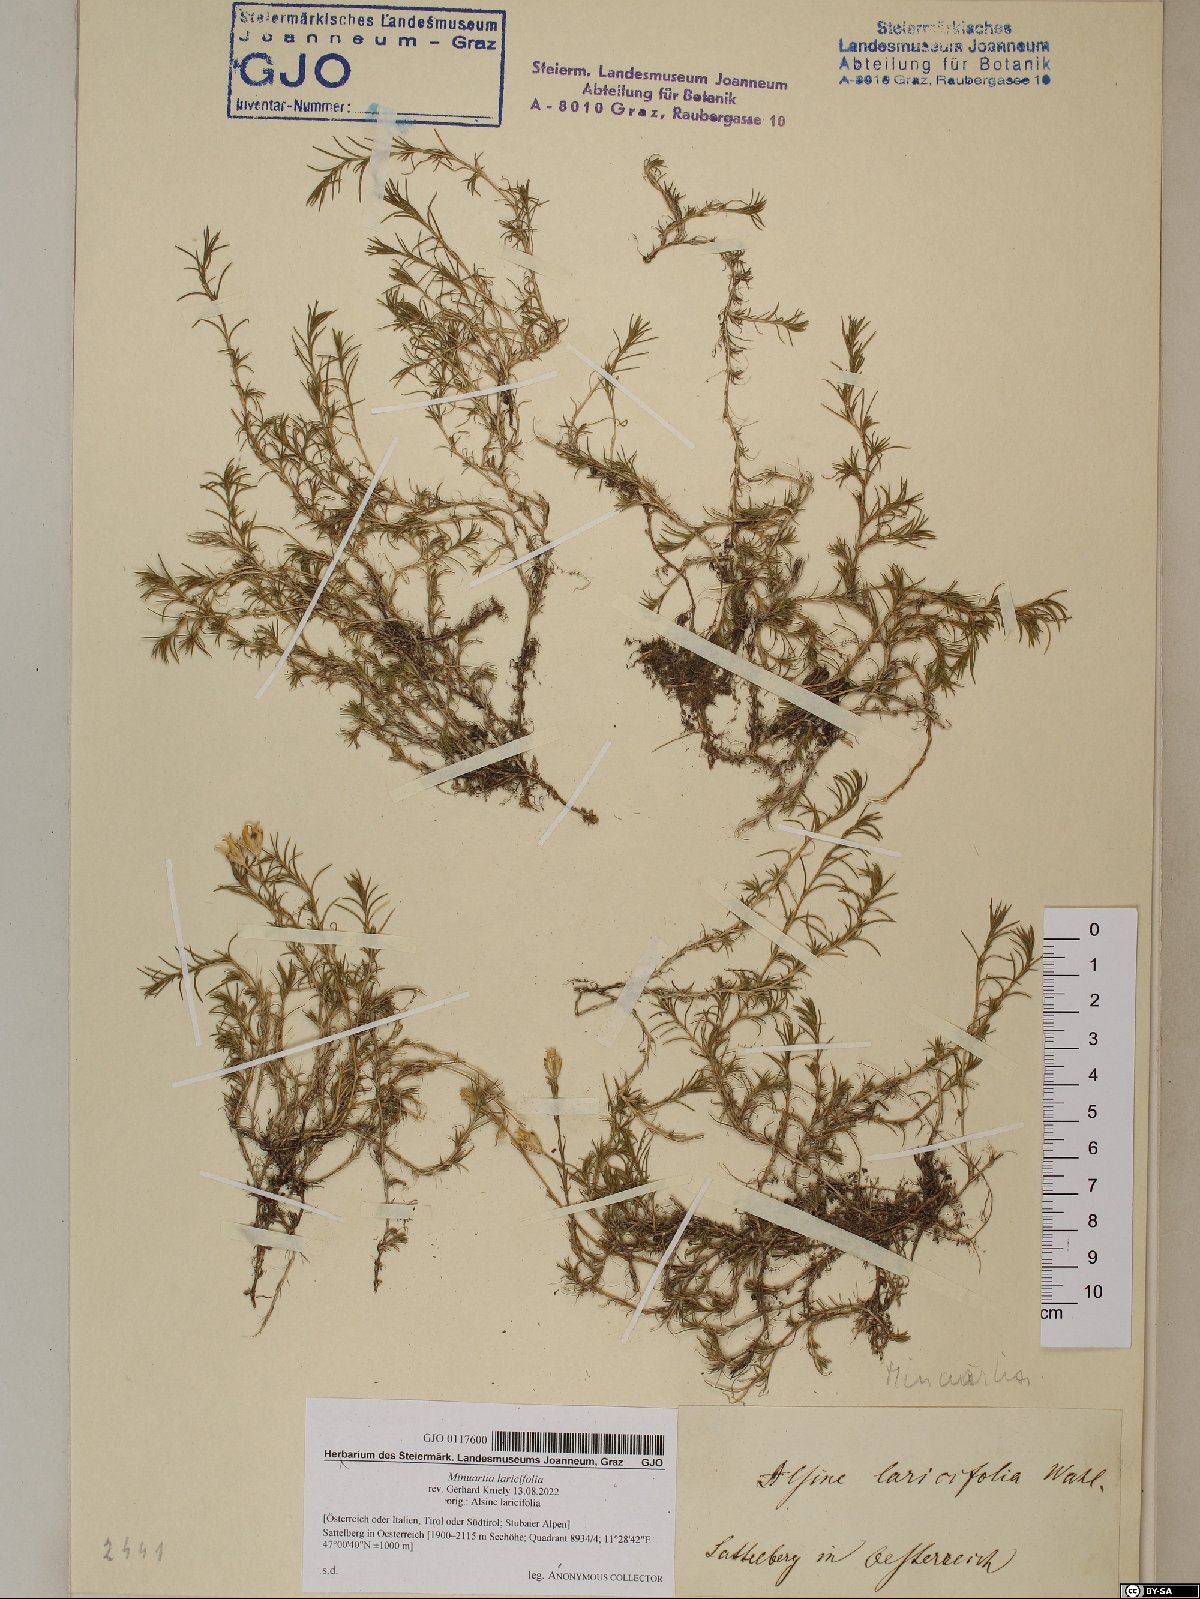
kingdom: Plantae
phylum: Tracheophyta
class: Magnoliopsida
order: Caryophyllales
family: Caryophyllaceae
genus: Cherleria
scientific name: Cherleria laricifolia
